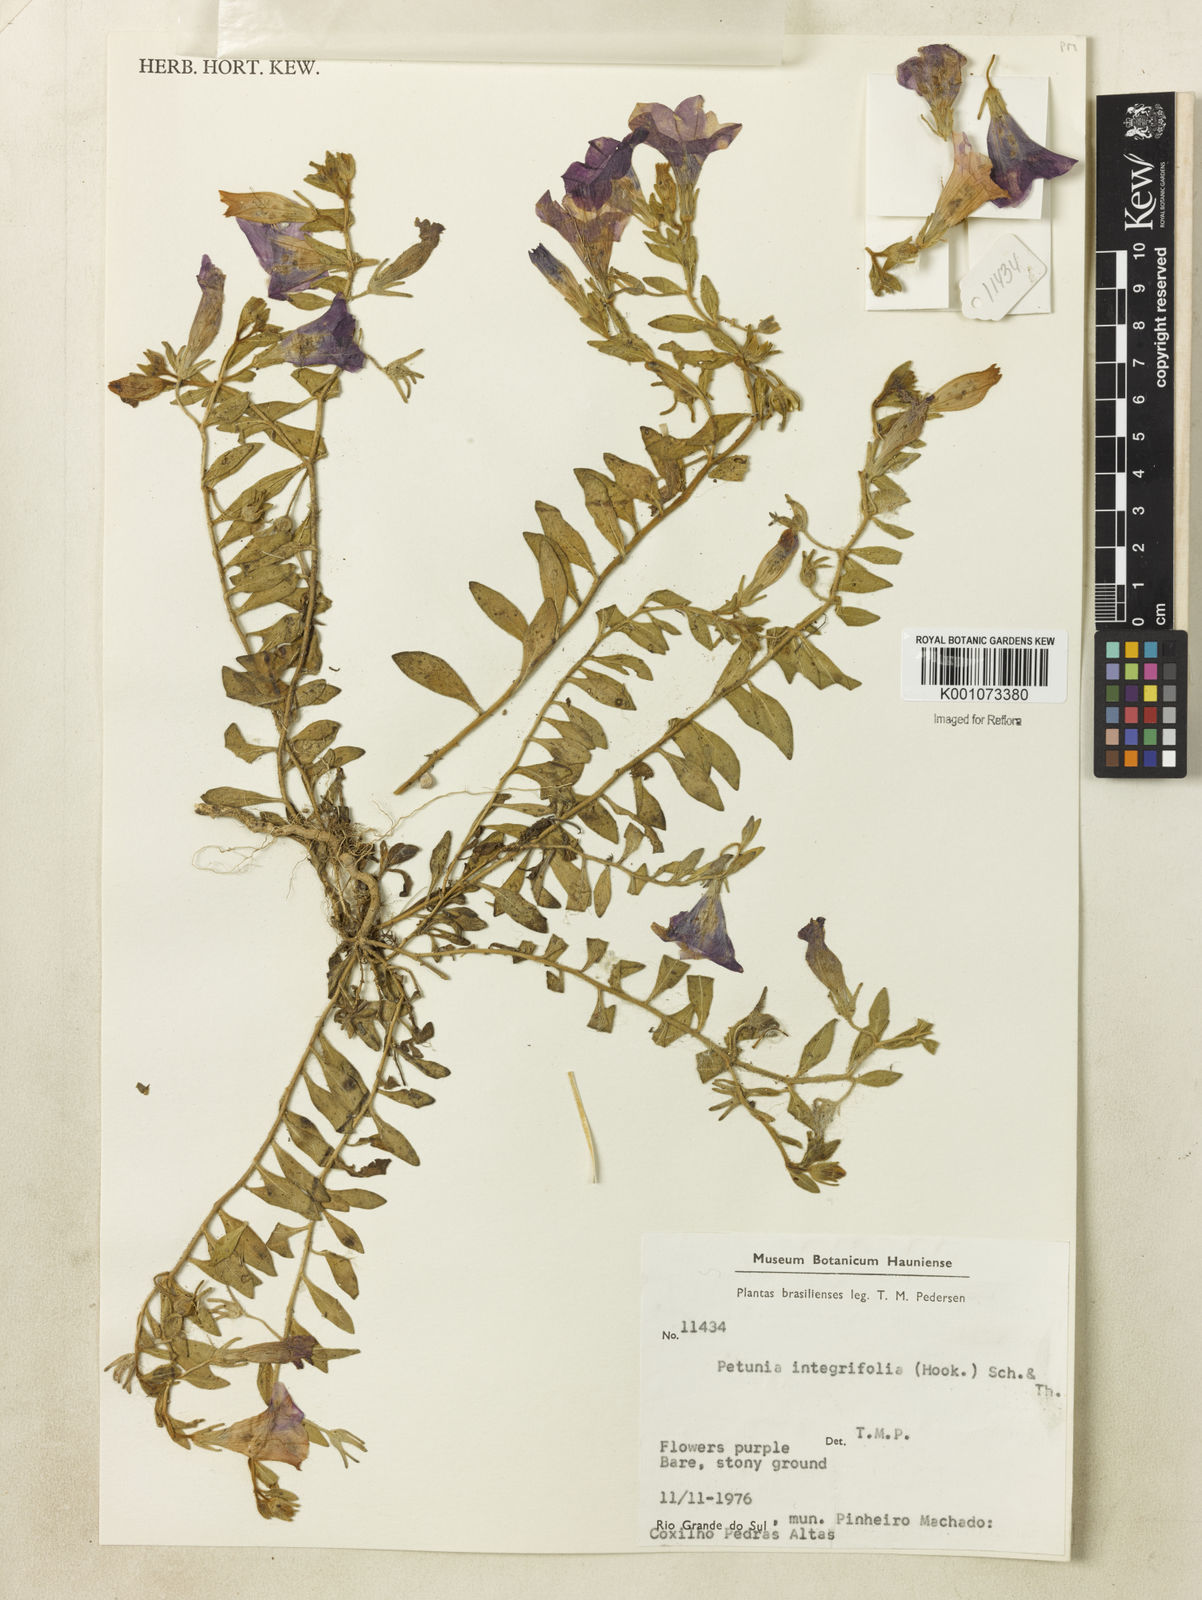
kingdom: Plantae
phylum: Tracheophyta
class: Magnoliopsida
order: Solanales
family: Solanaceae
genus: Petunia
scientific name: Petunia integrifolia
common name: Violet-flower petunia
